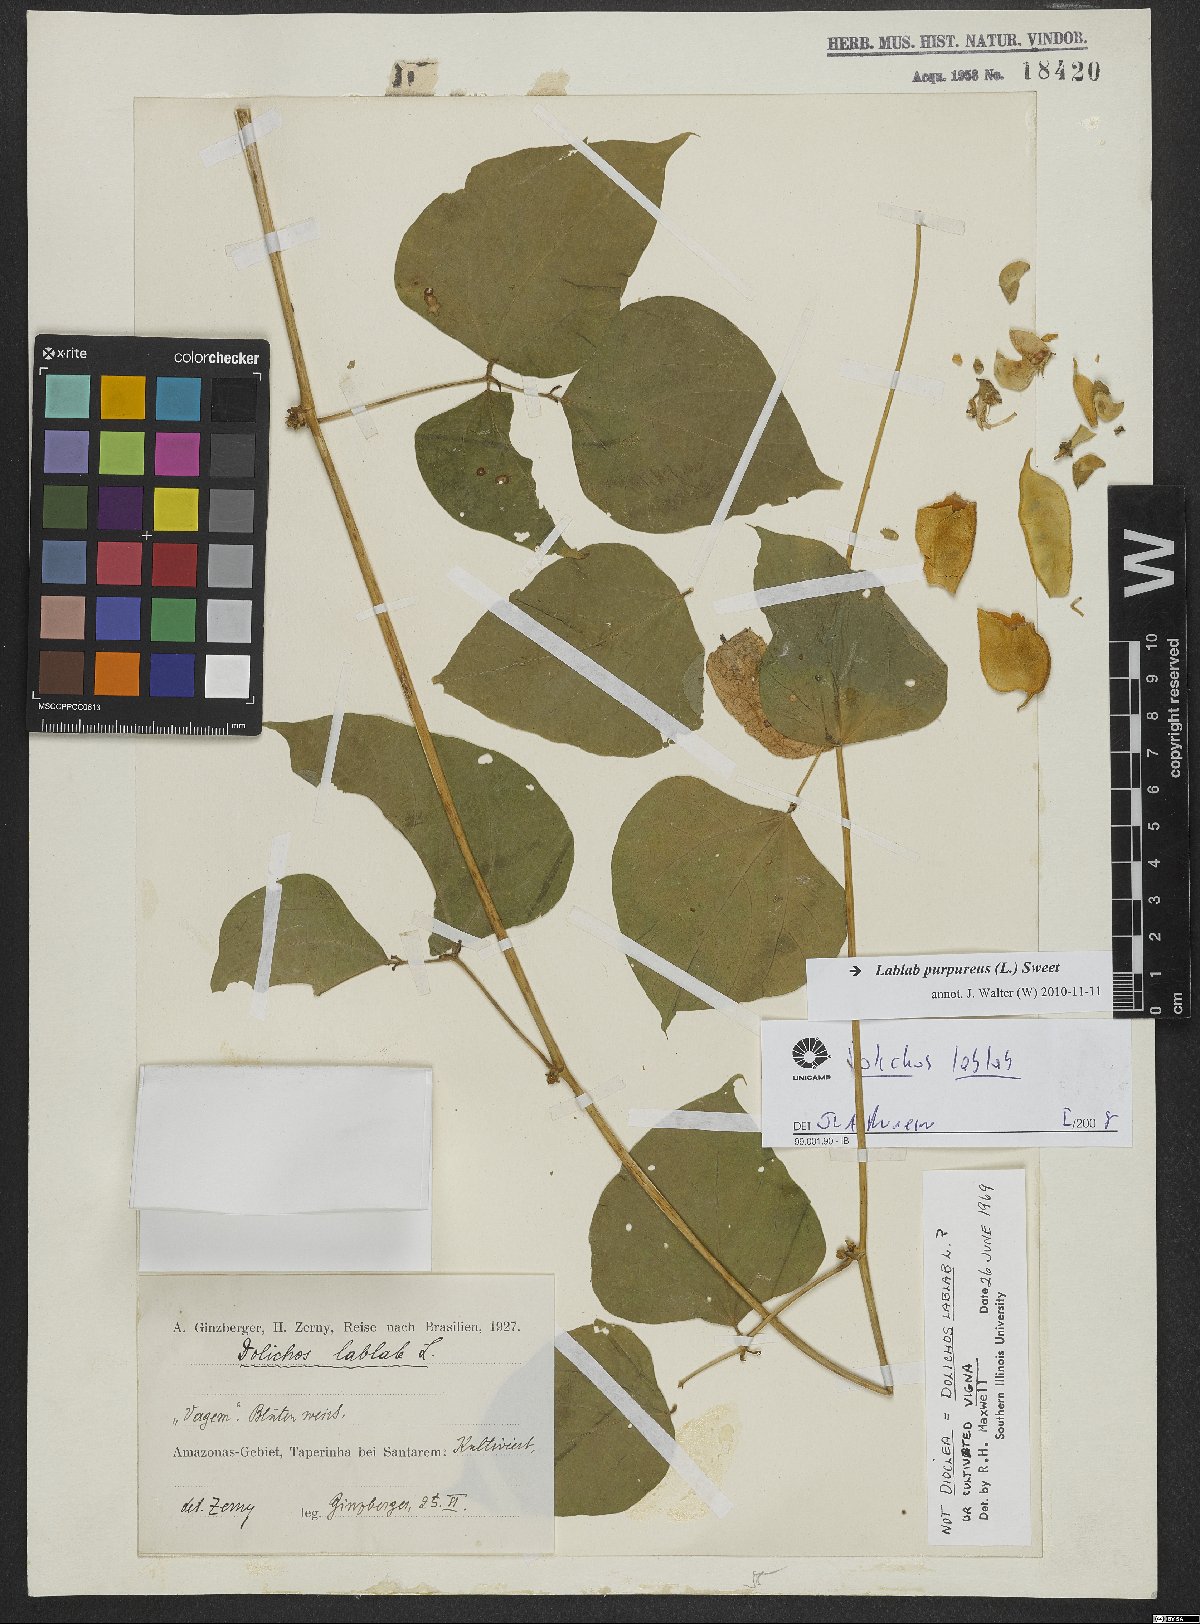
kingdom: Plantae
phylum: Tracheophyta
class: Magnoliopsida
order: Fabales
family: Fabaceae
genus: Lablab
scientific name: Lablab purpureus
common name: Lablab-bean
